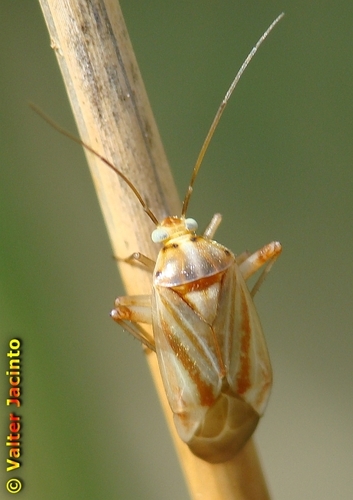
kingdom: Animalia
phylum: Arthropoda
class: Insecta
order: Hemiptera
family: Miridae
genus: Apolygus
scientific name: Apolygus rubrostriatus
